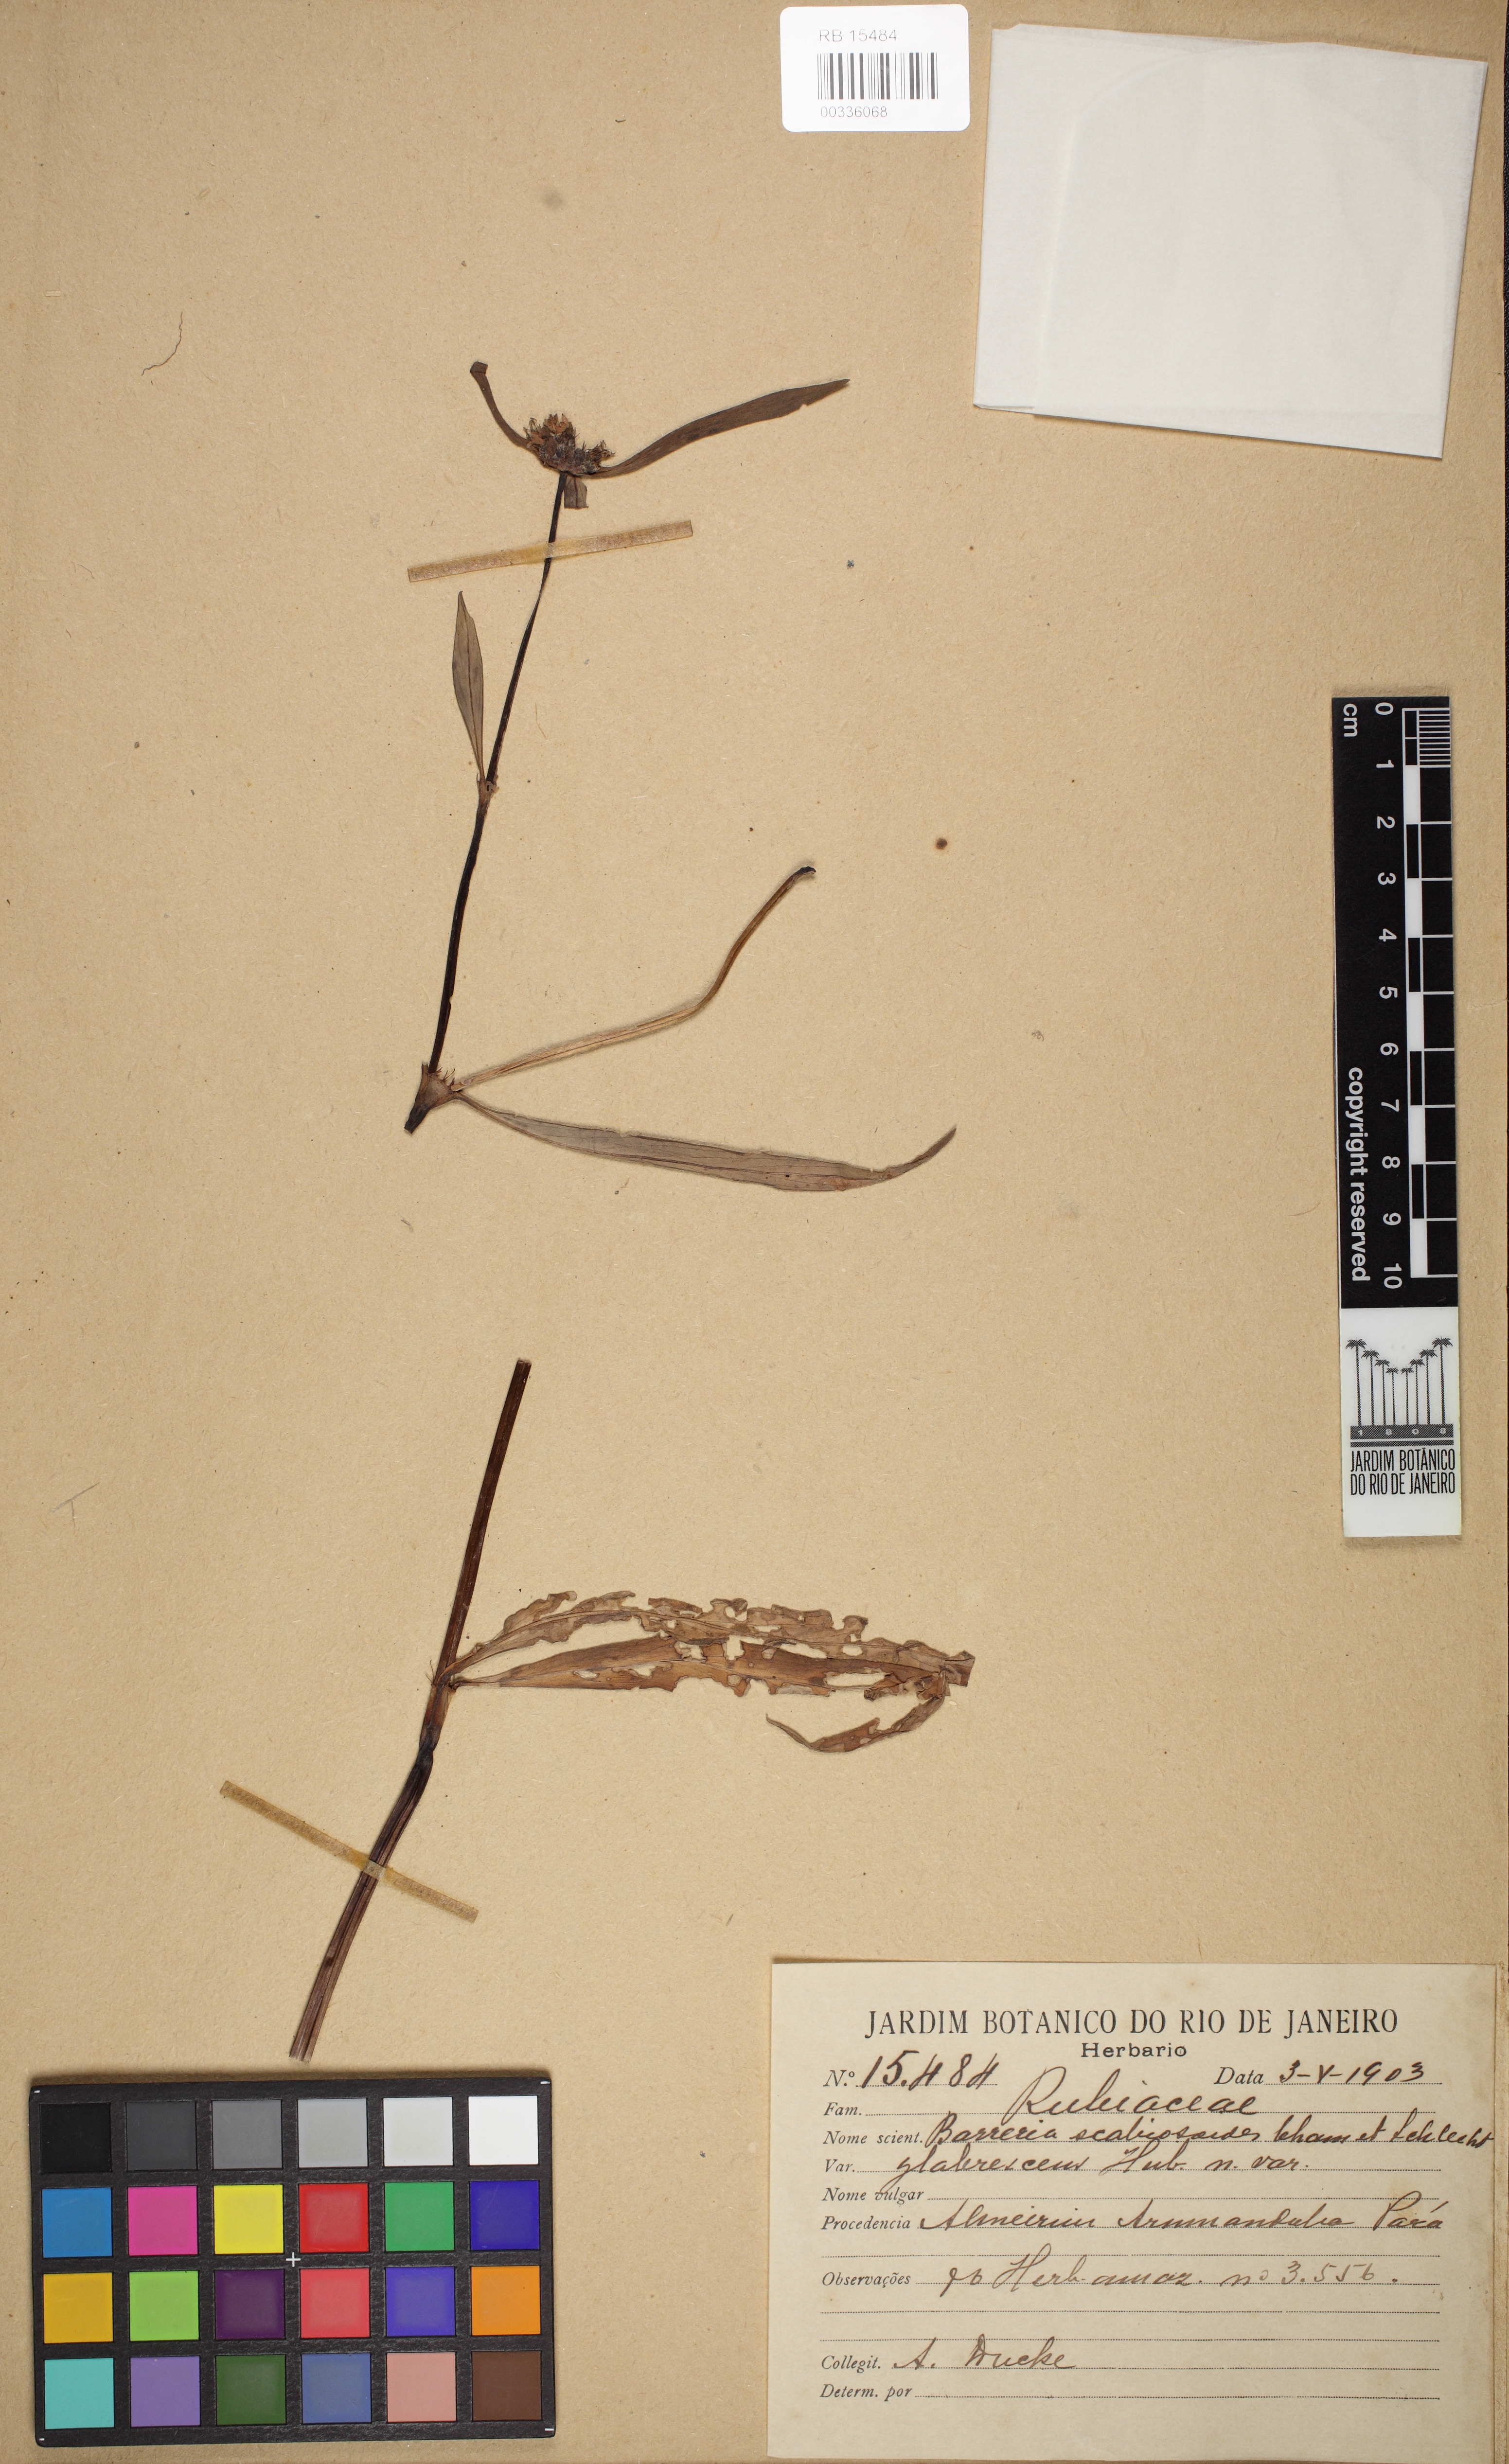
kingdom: Plantae
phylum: Tracheophyta
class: Magnoliopsida
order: Gentianales
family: Rubiaceae
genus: Spermacoce
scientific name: Spermacoce scabiosoides
